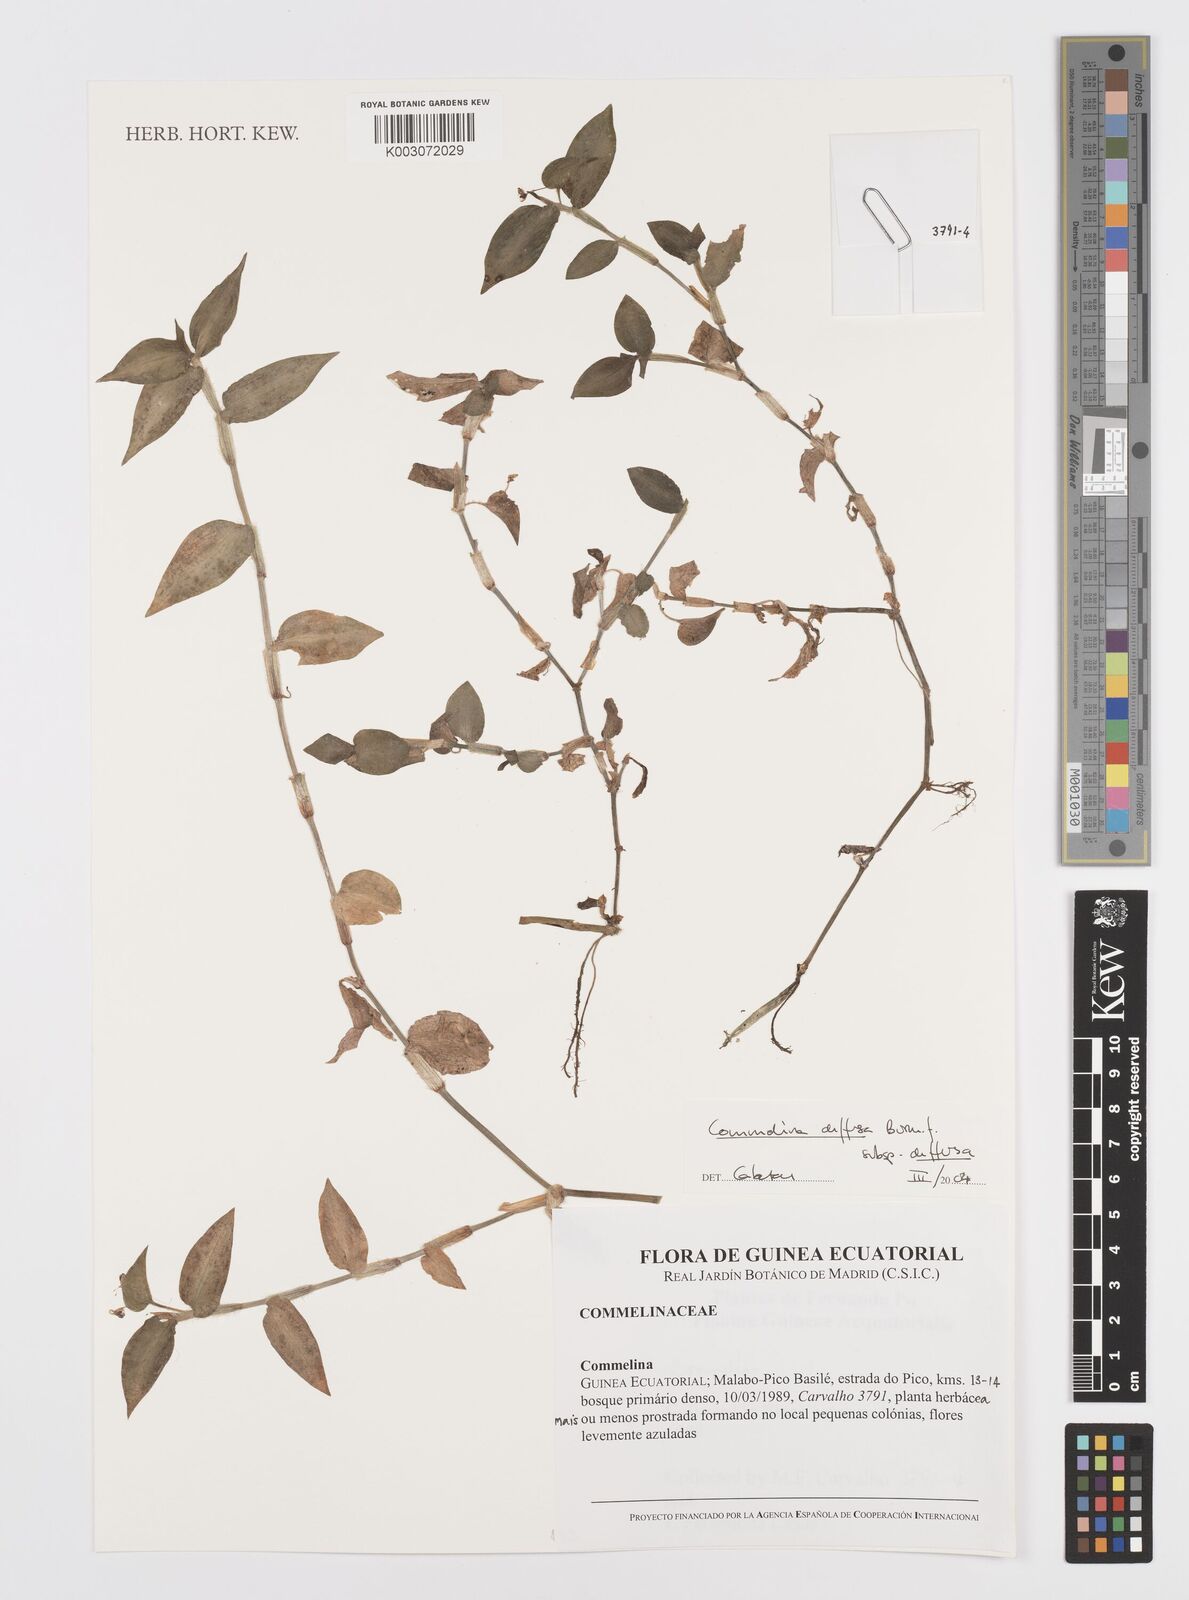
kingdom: Plantae
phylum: Tracheophyta
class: Liliopsida
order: Commelinales
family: Commelinaceae
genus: Commelina
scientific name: Commelina diffusa
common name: Climbing dayflower
